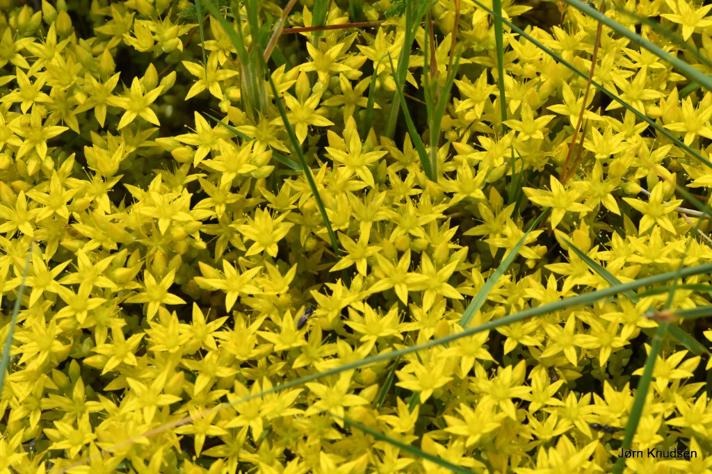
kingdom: Plantae
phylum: Tracheophyta
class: Magnoliopsida
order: Saxifragales
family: Crassulaceae
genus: Sedum
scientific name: Sedum acre
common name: Bidende stenurt
